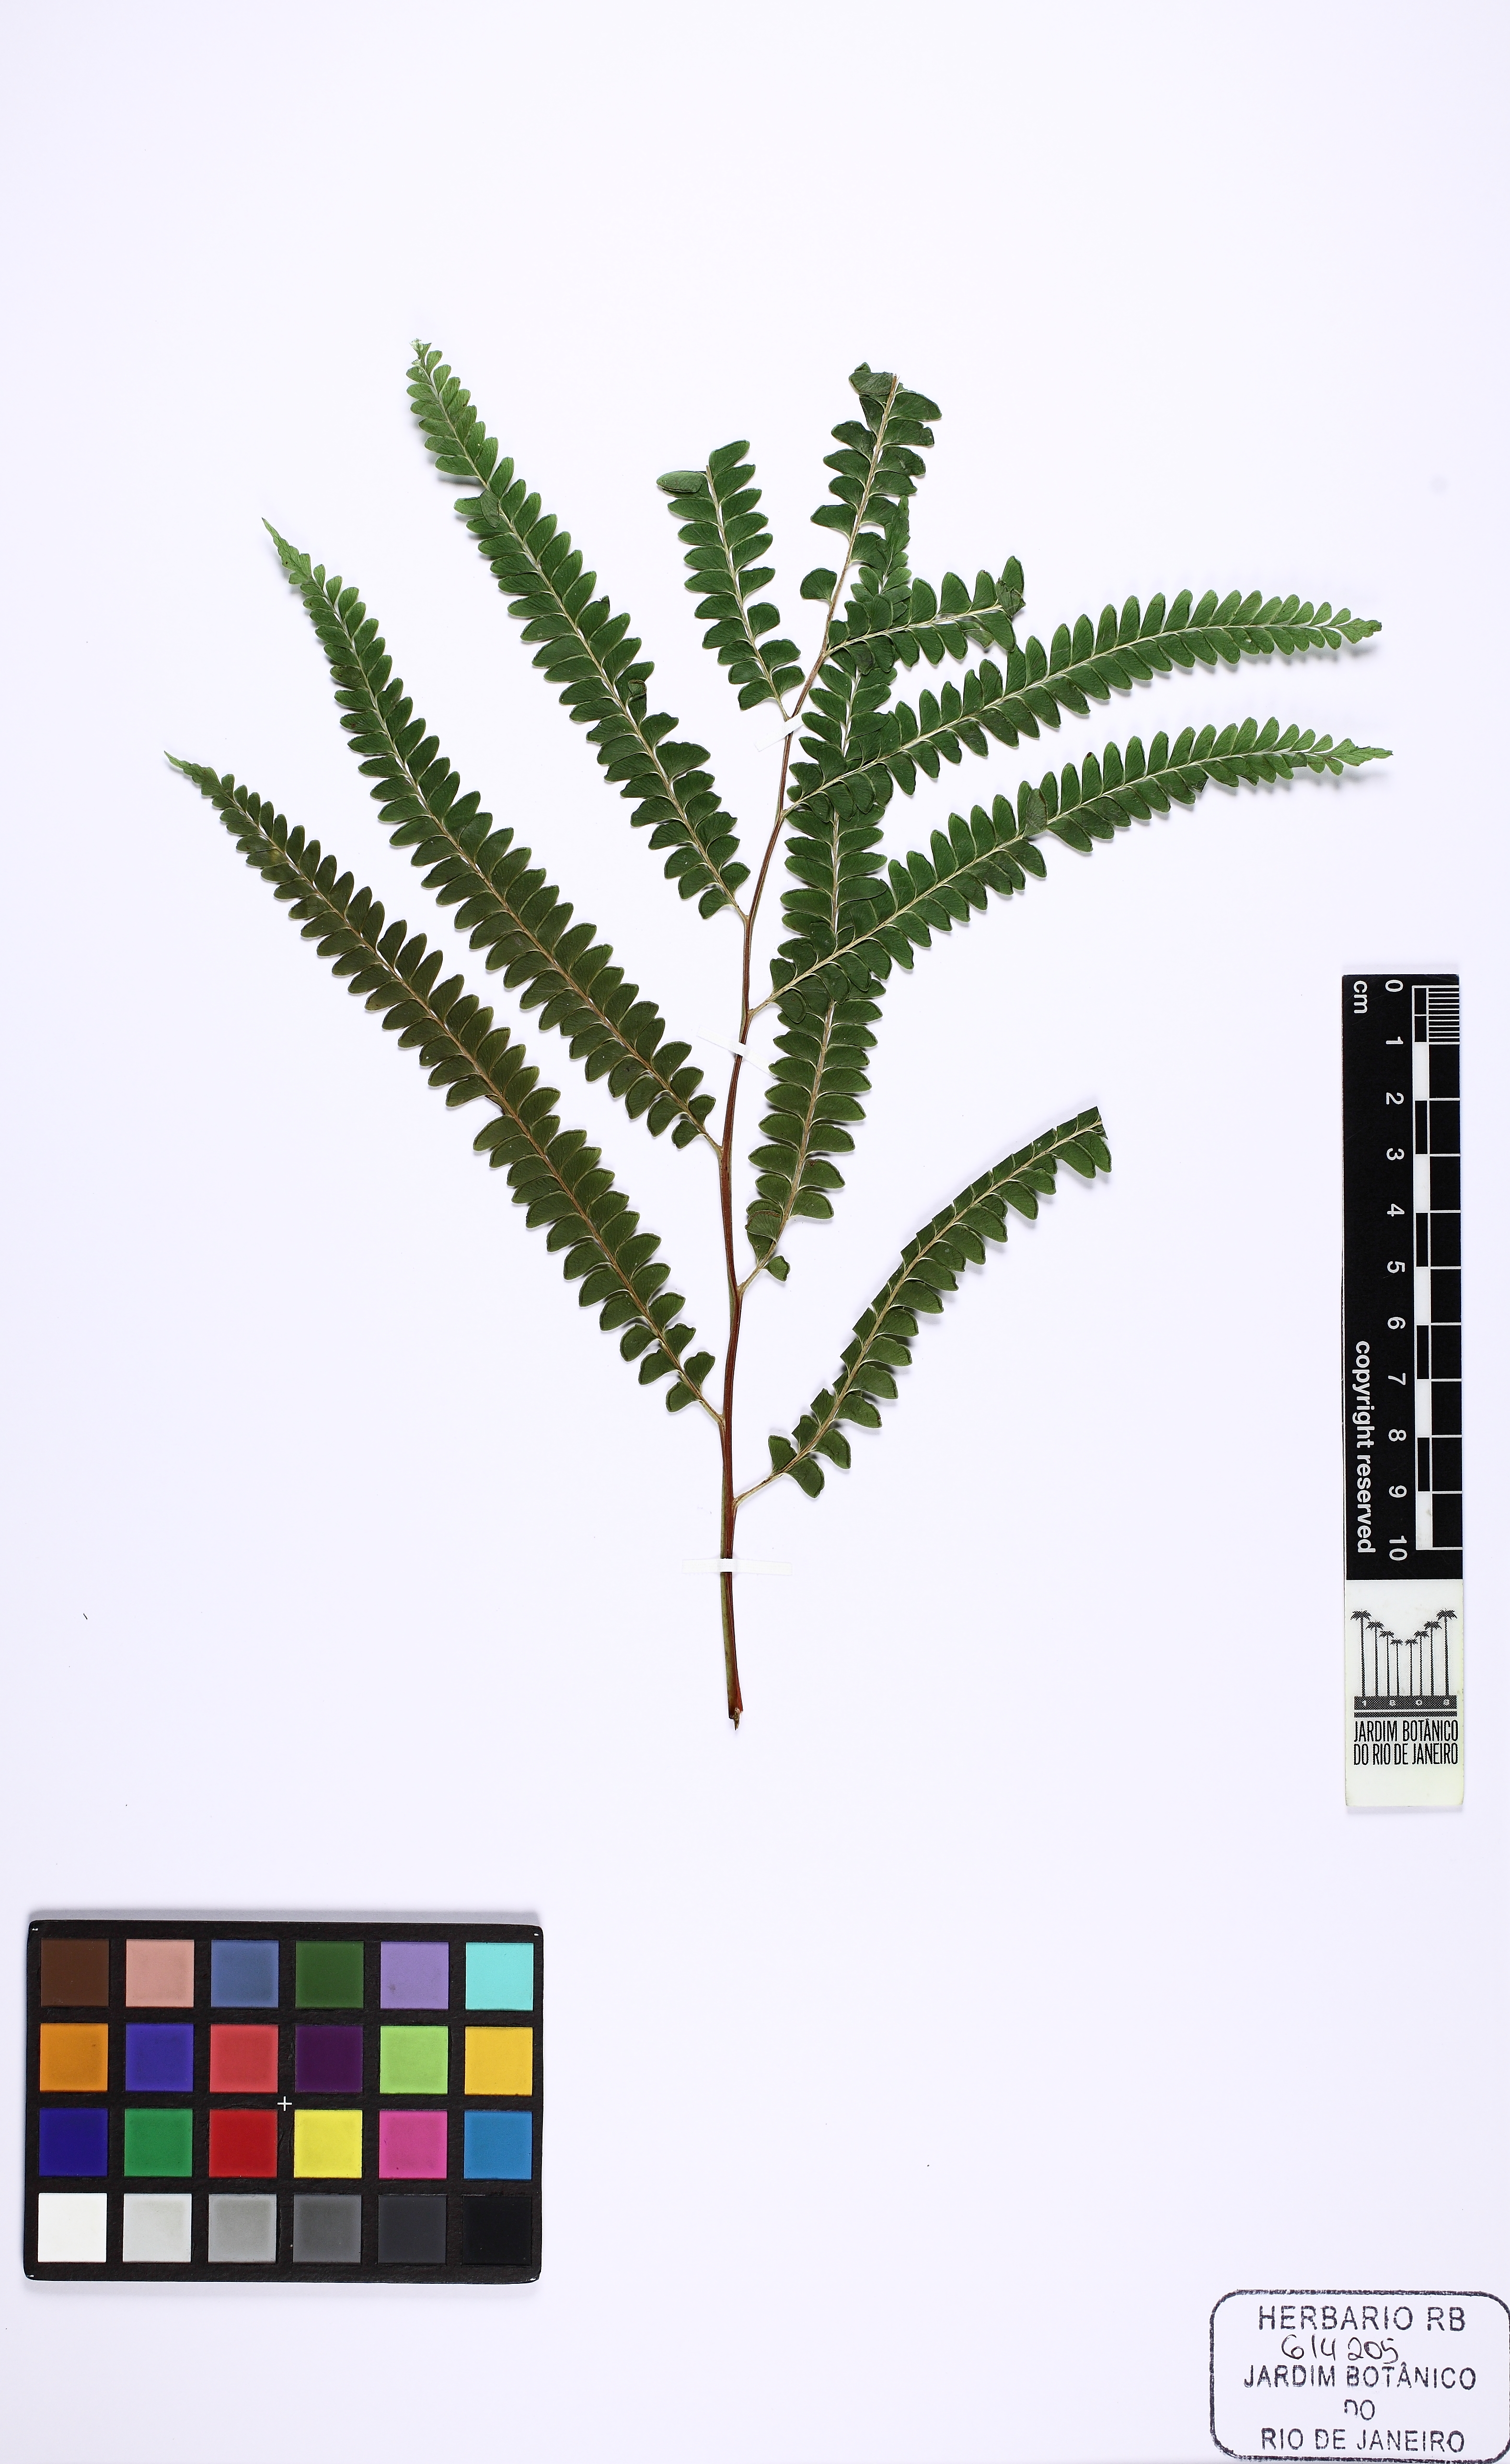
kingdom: Plantae
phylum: Tracheophyta
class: Polypodiopsida
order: Polypodiales
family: Lindsaeaceae
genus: Lindsaea
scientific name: Lindsaea quadrangularis
